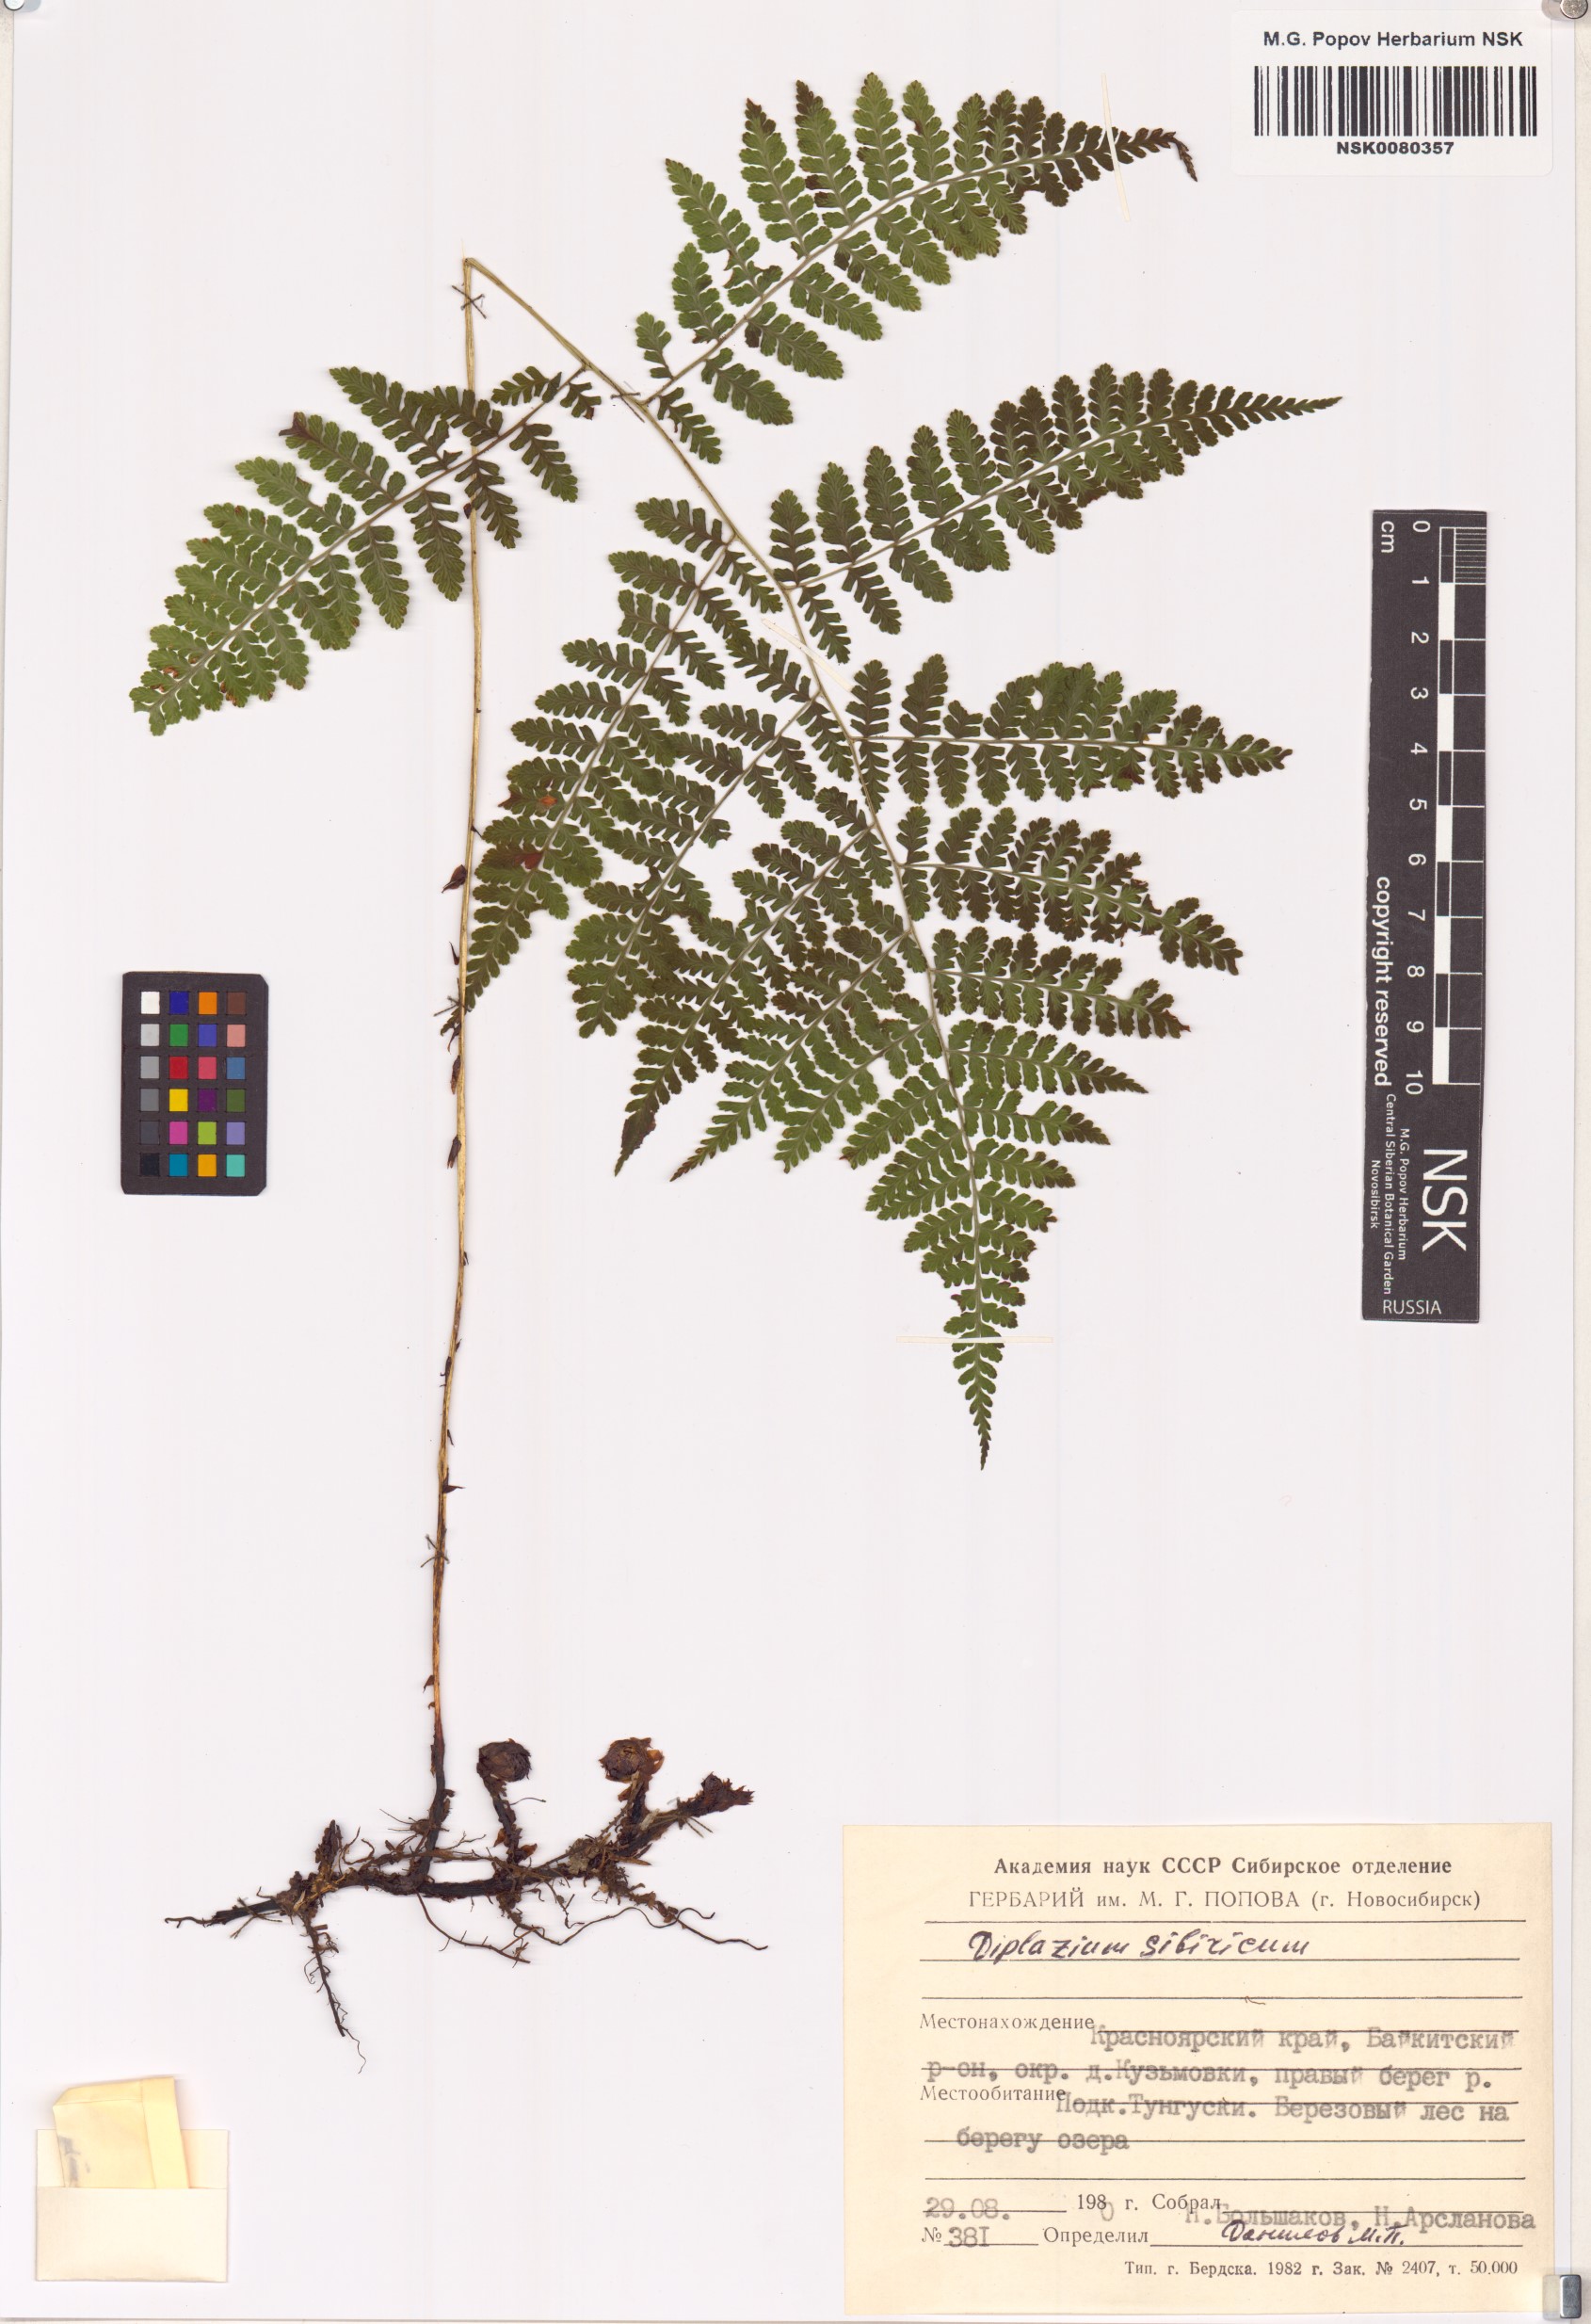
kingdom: Plantae
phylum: Tracheophyta
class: Polypodiopsida
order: Polypodiales
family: Athyriaceae
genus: Diplazium
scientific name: Diplazium sibiricum
